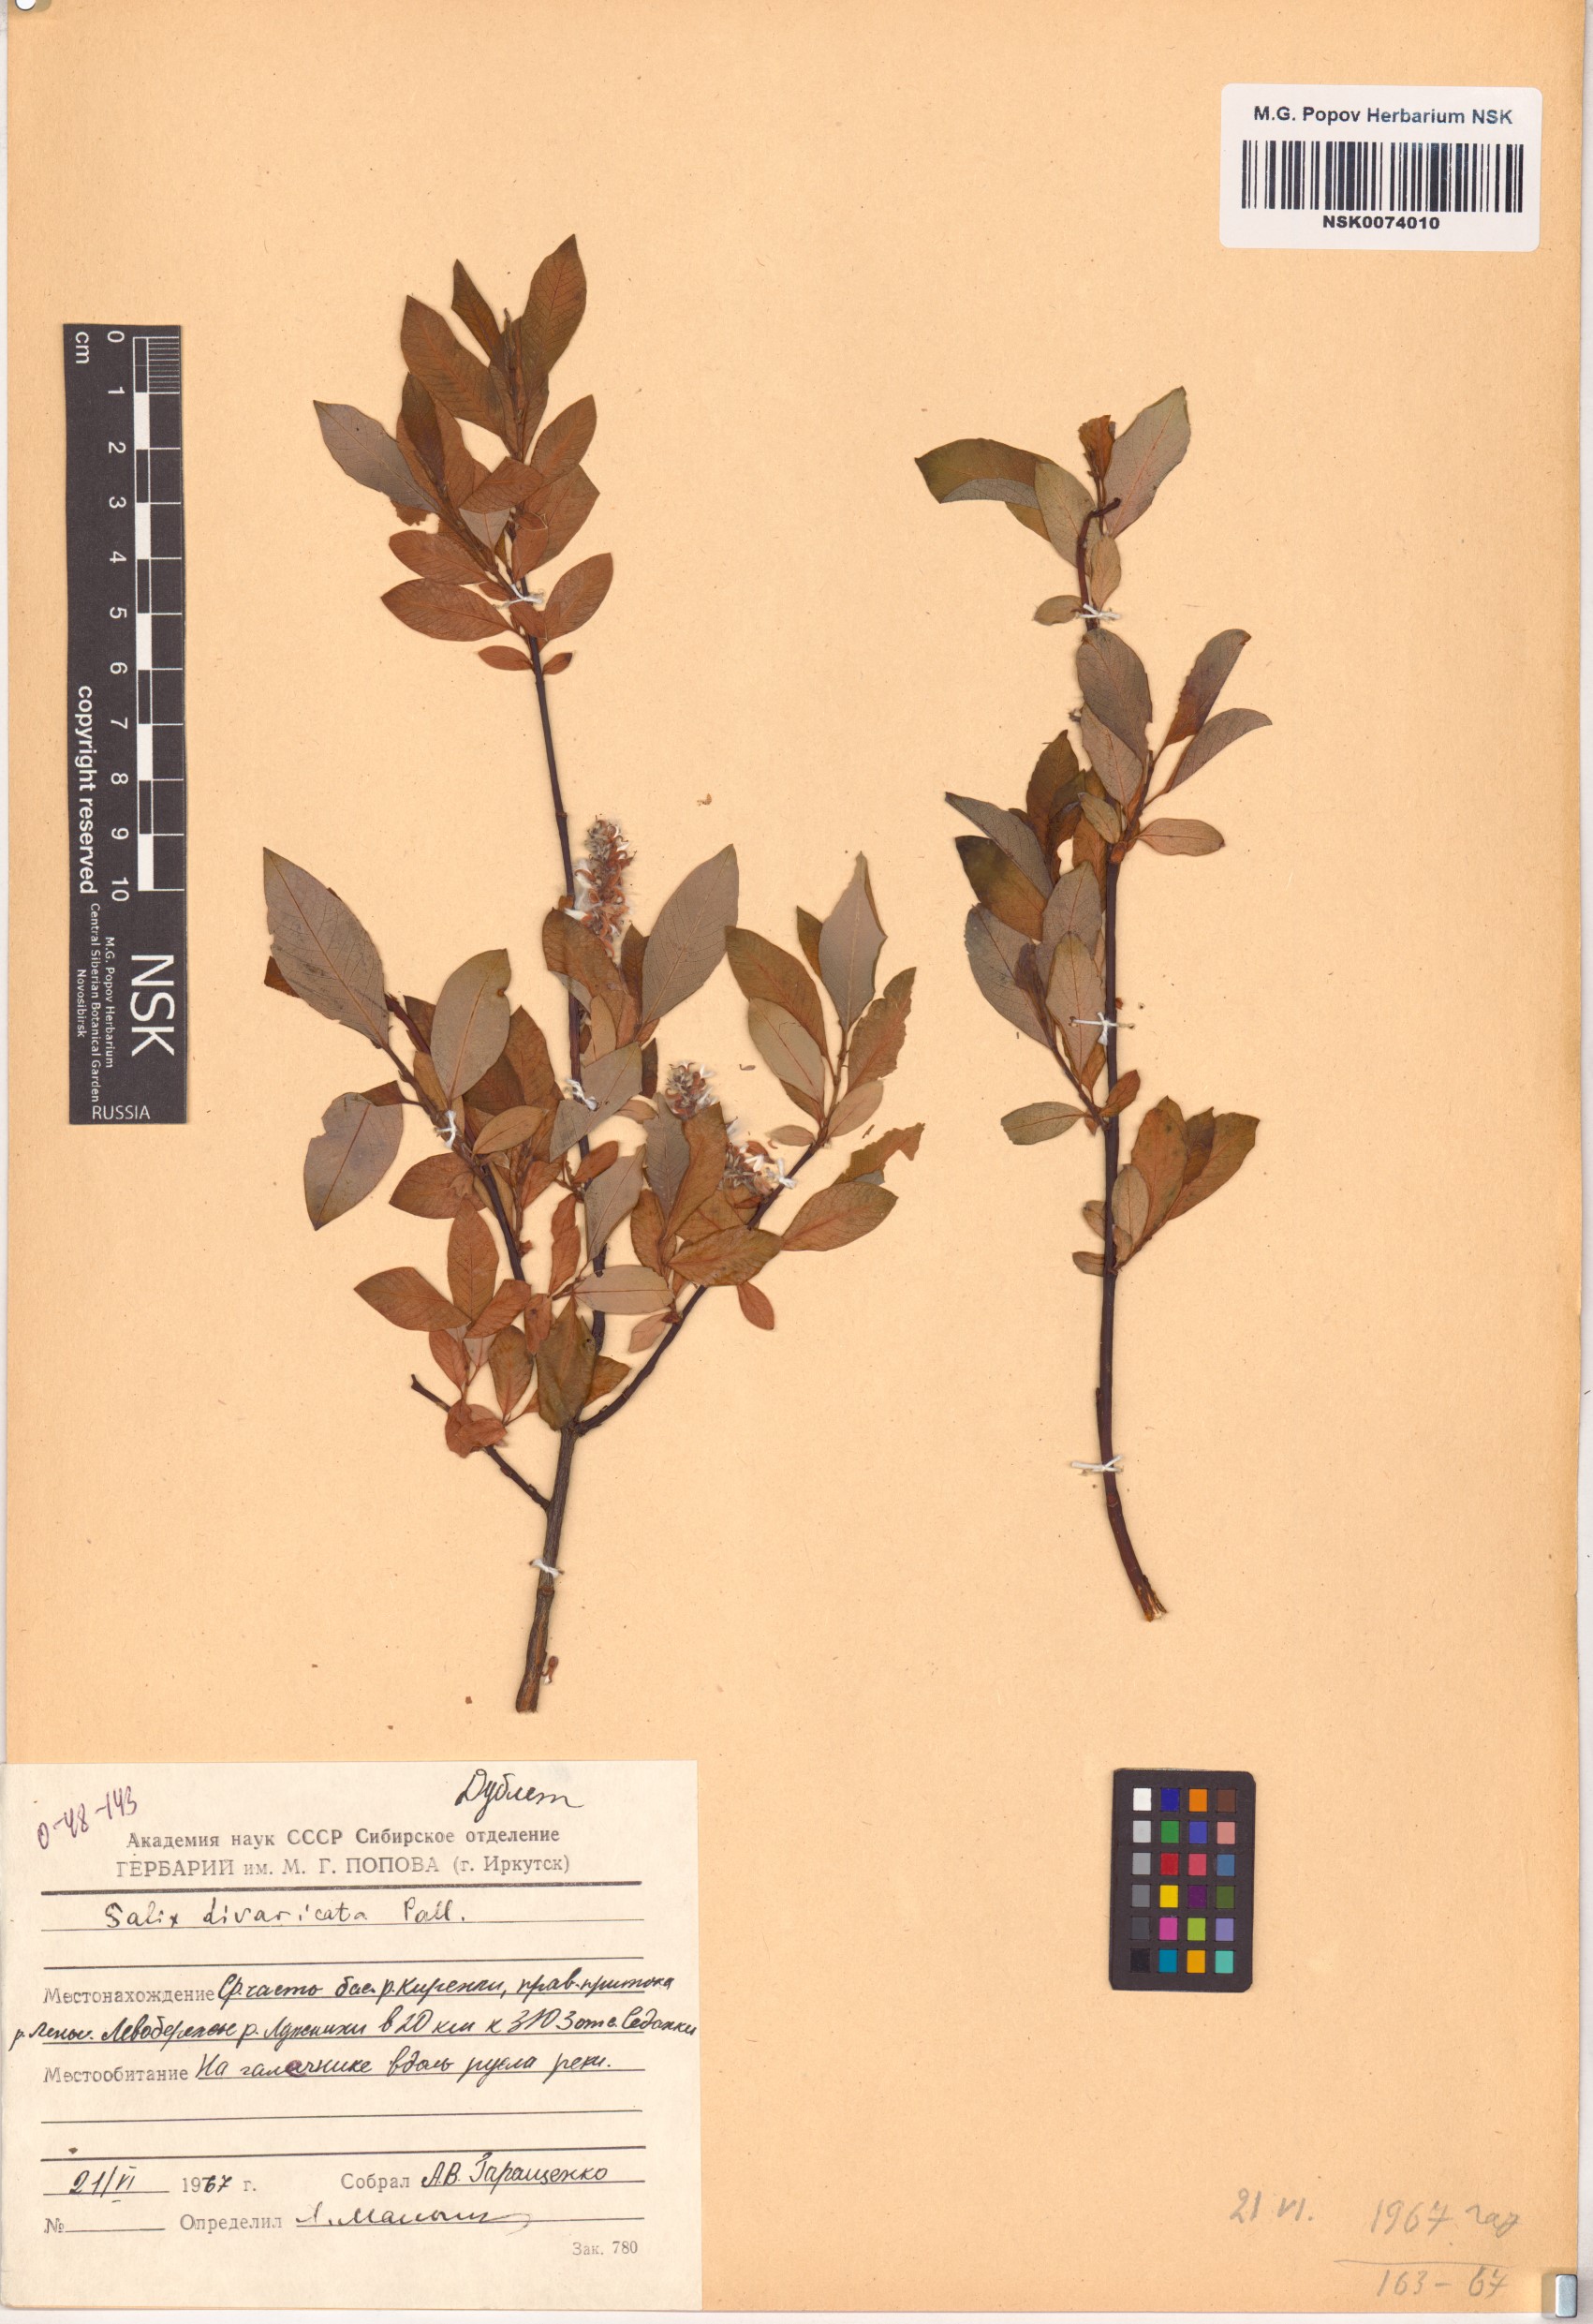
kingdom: Plantae
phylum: Tracheophyta
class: Magnoliopsida
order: Malpighiales
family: Salicaceae
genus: Salix
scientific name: Salix divaricata
